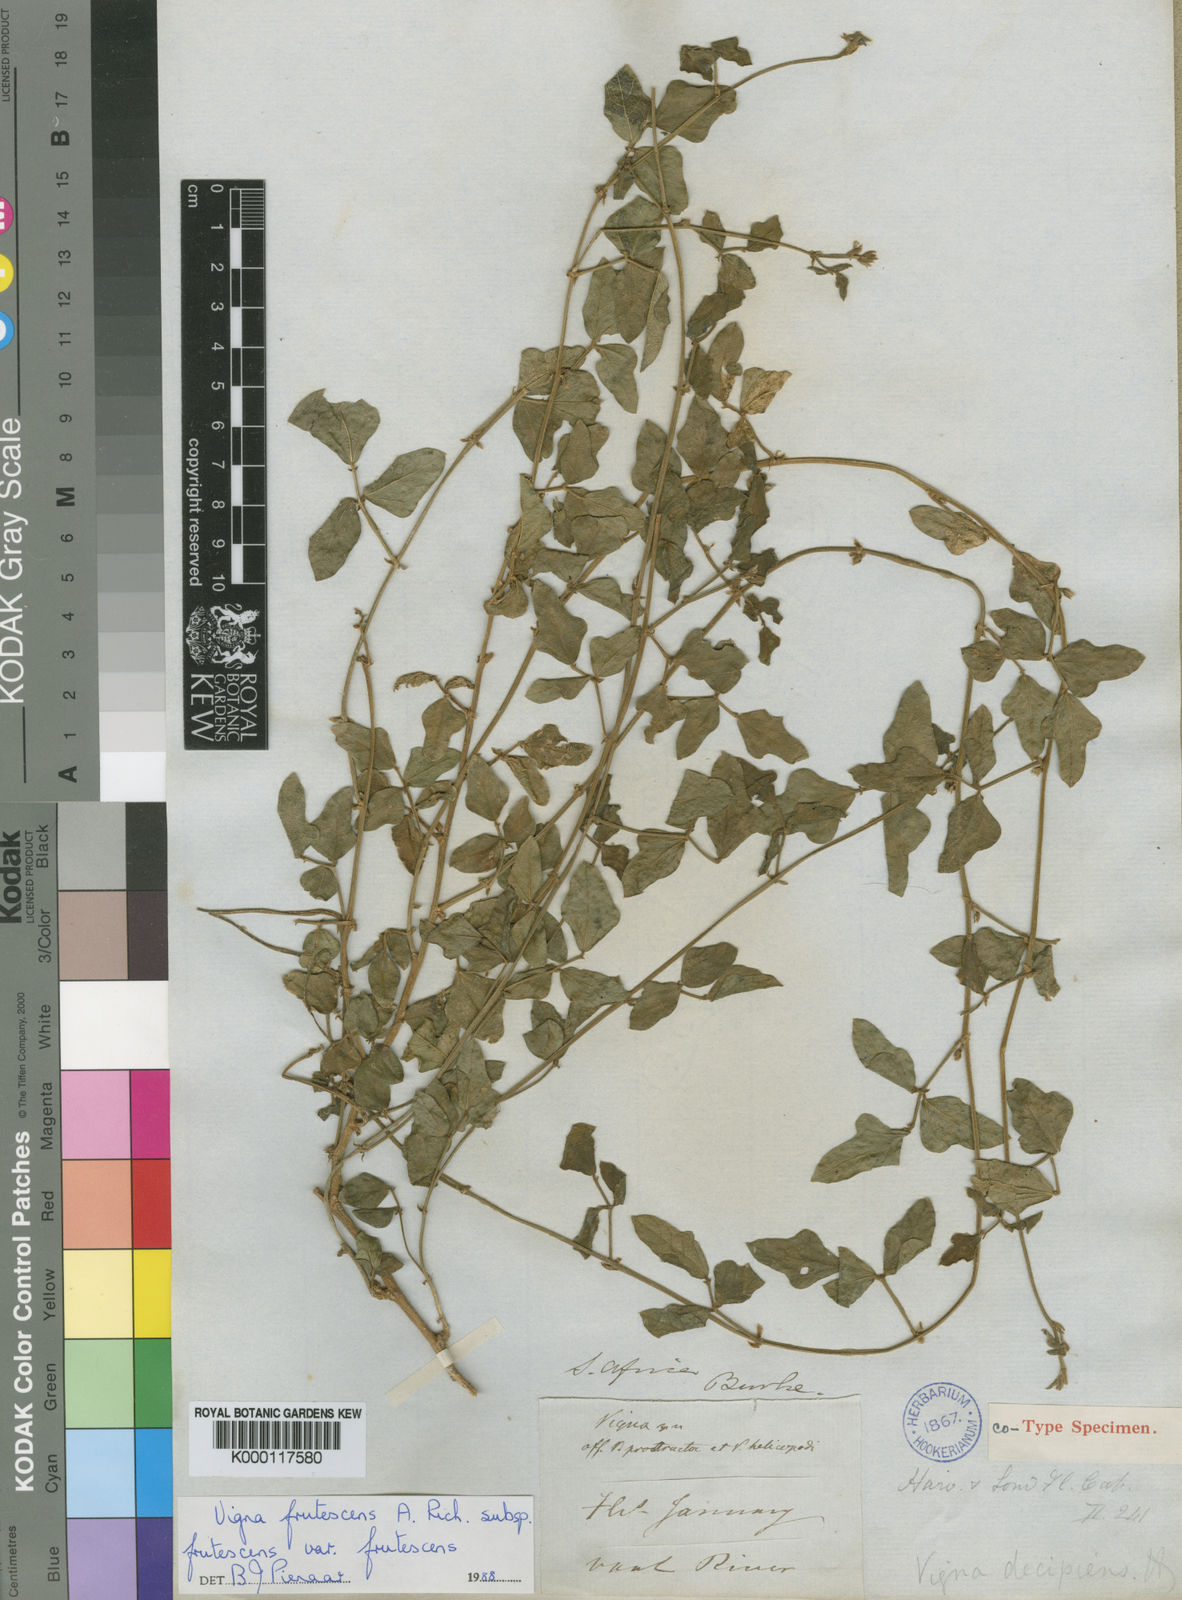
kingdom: Plantae
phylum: Tracheophyta
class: Magnoliopsida
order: Fabales
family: Fabaceae
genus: Vigna
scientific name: Vigna frutescens
